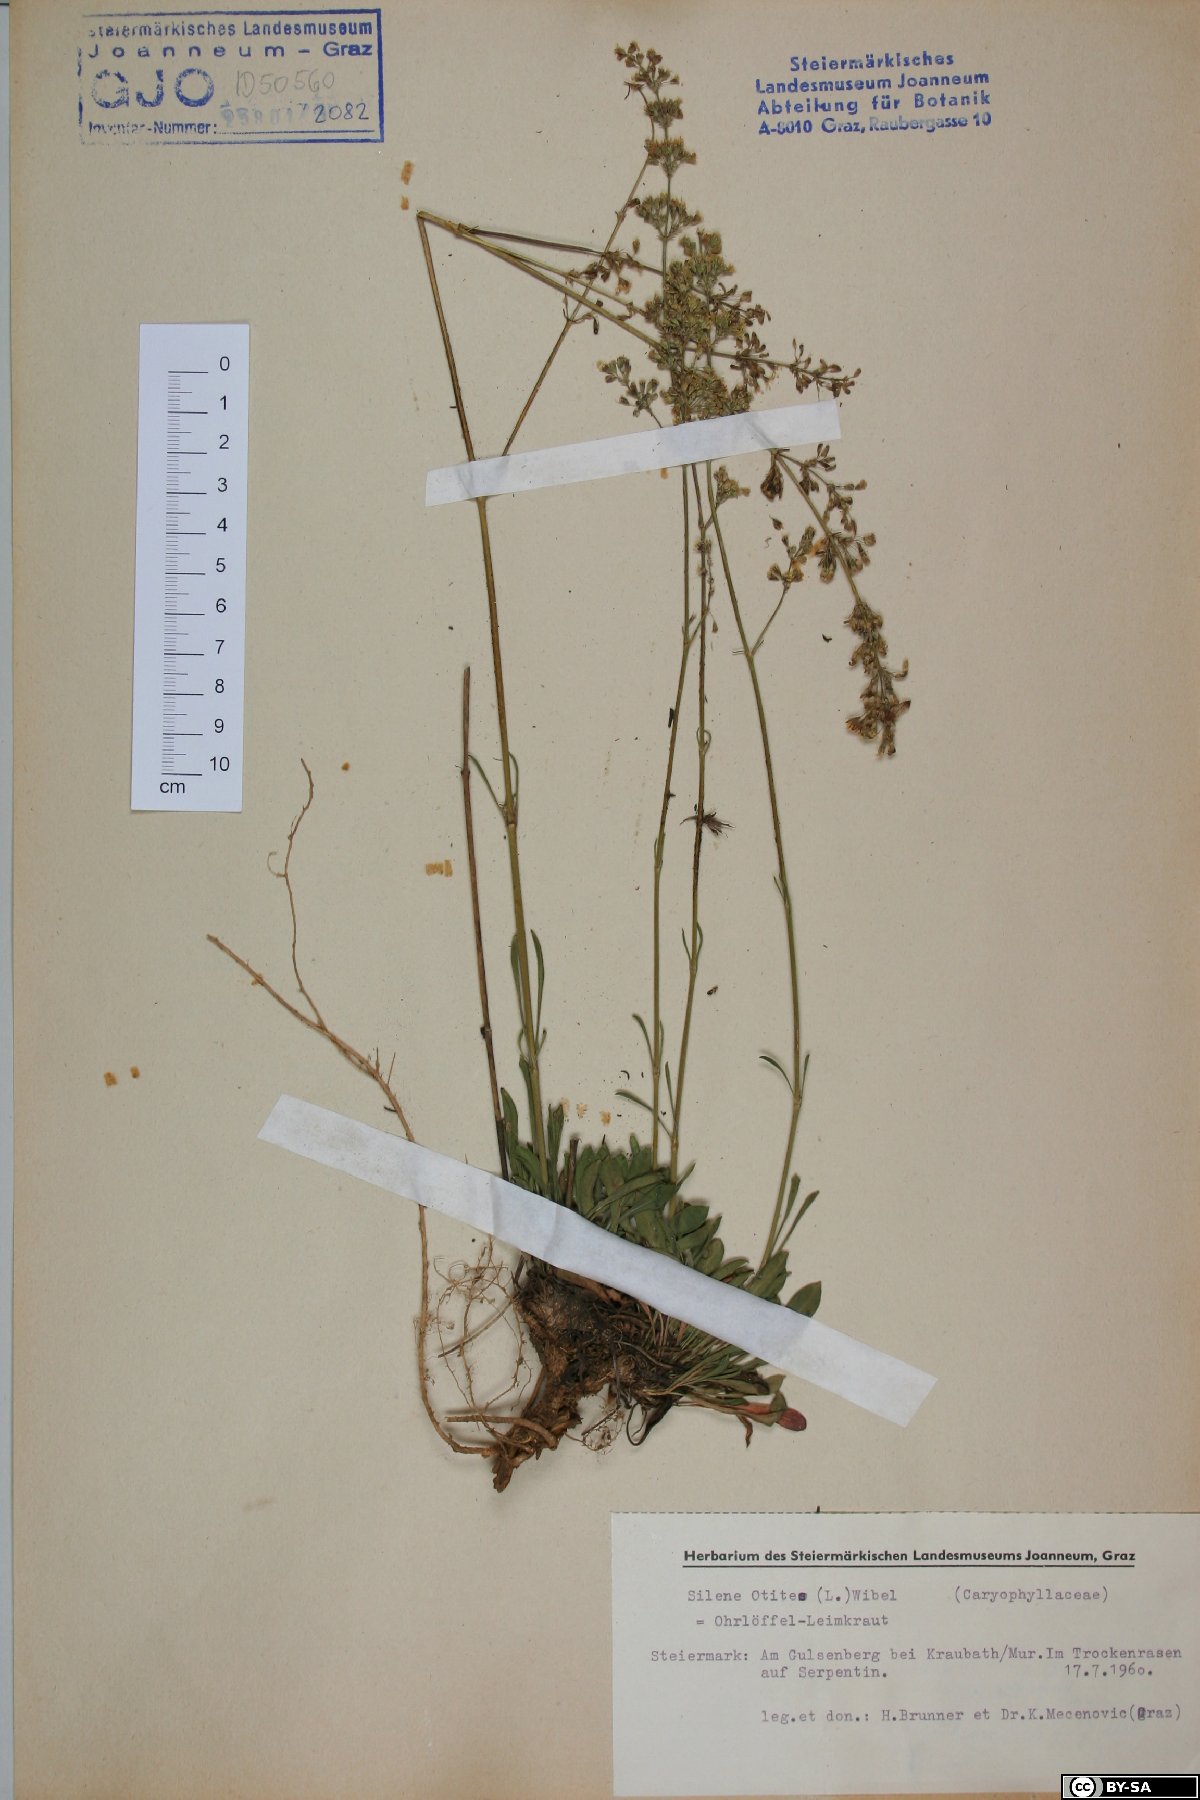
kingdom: Plantae
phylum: Tracheophyta
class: Magnoliopsida
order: Caryophyllales
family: Caryophyllaceae
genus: Silene
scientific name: Silene otites
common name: Spanish catchfly
